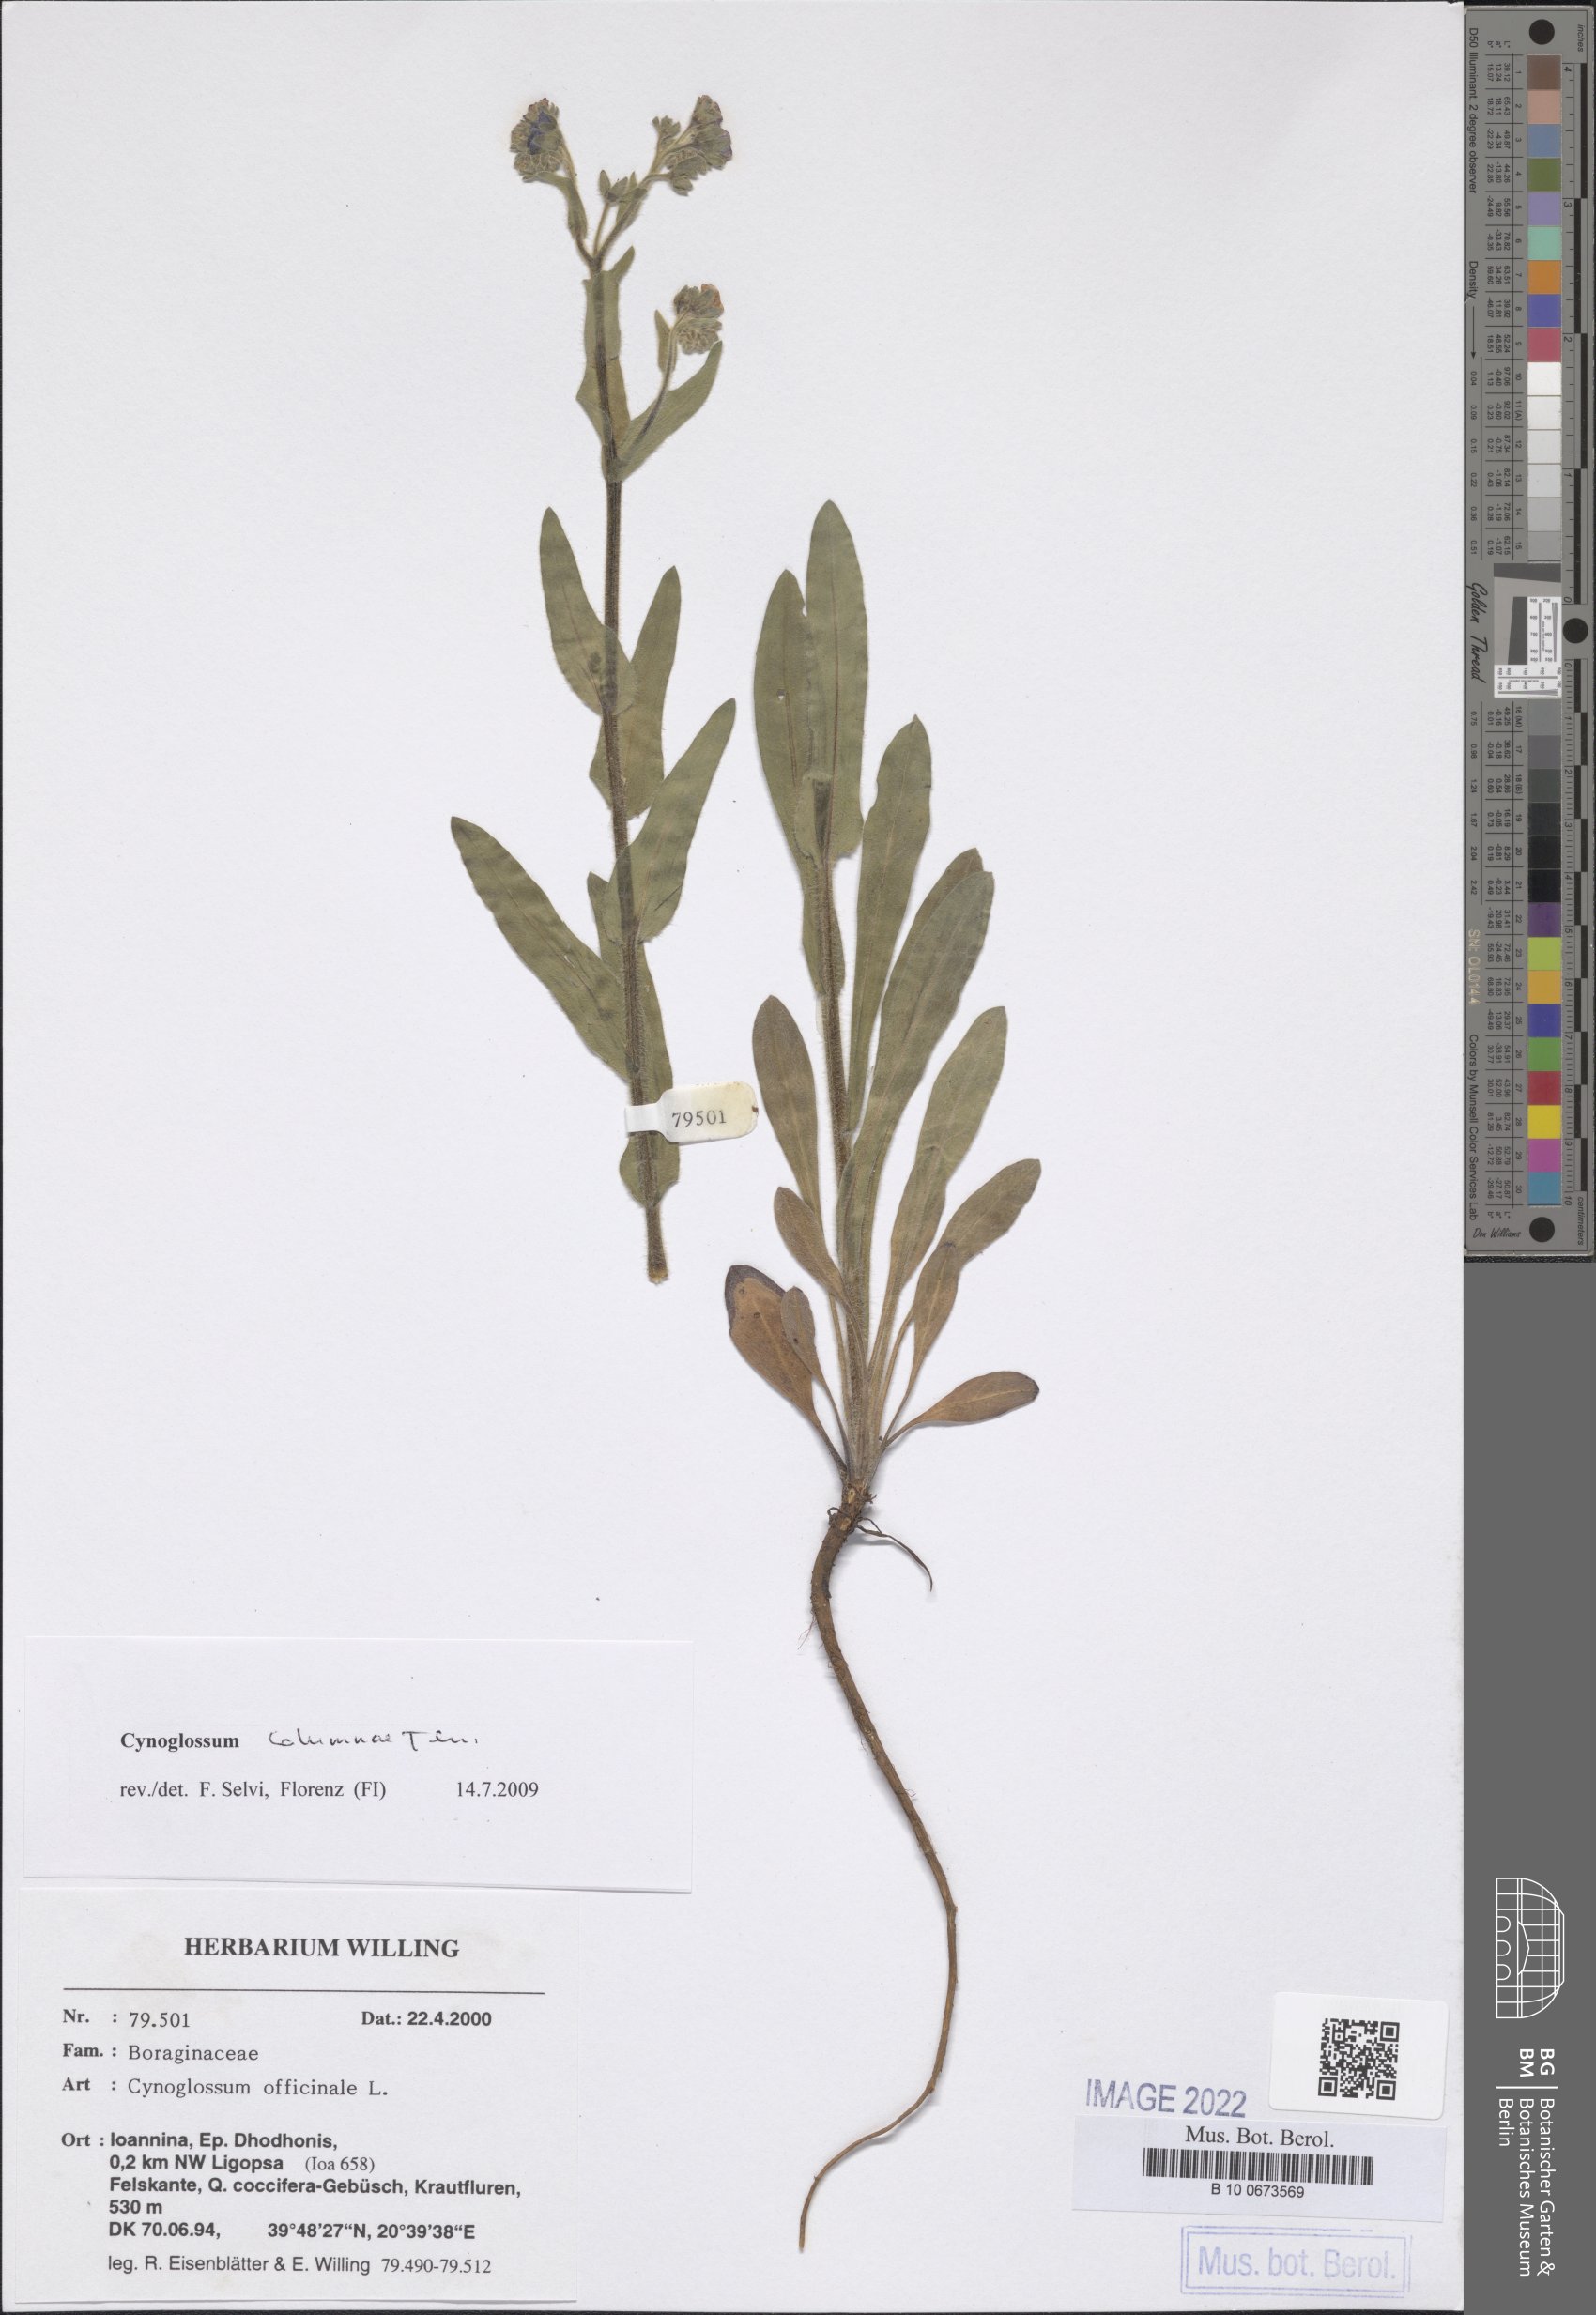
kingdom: Plantae
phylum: Tracheophyta
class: Magnoliopsida
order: Boraginales
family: Boraginaceae
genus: Rindera
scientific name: Rindera columnae
